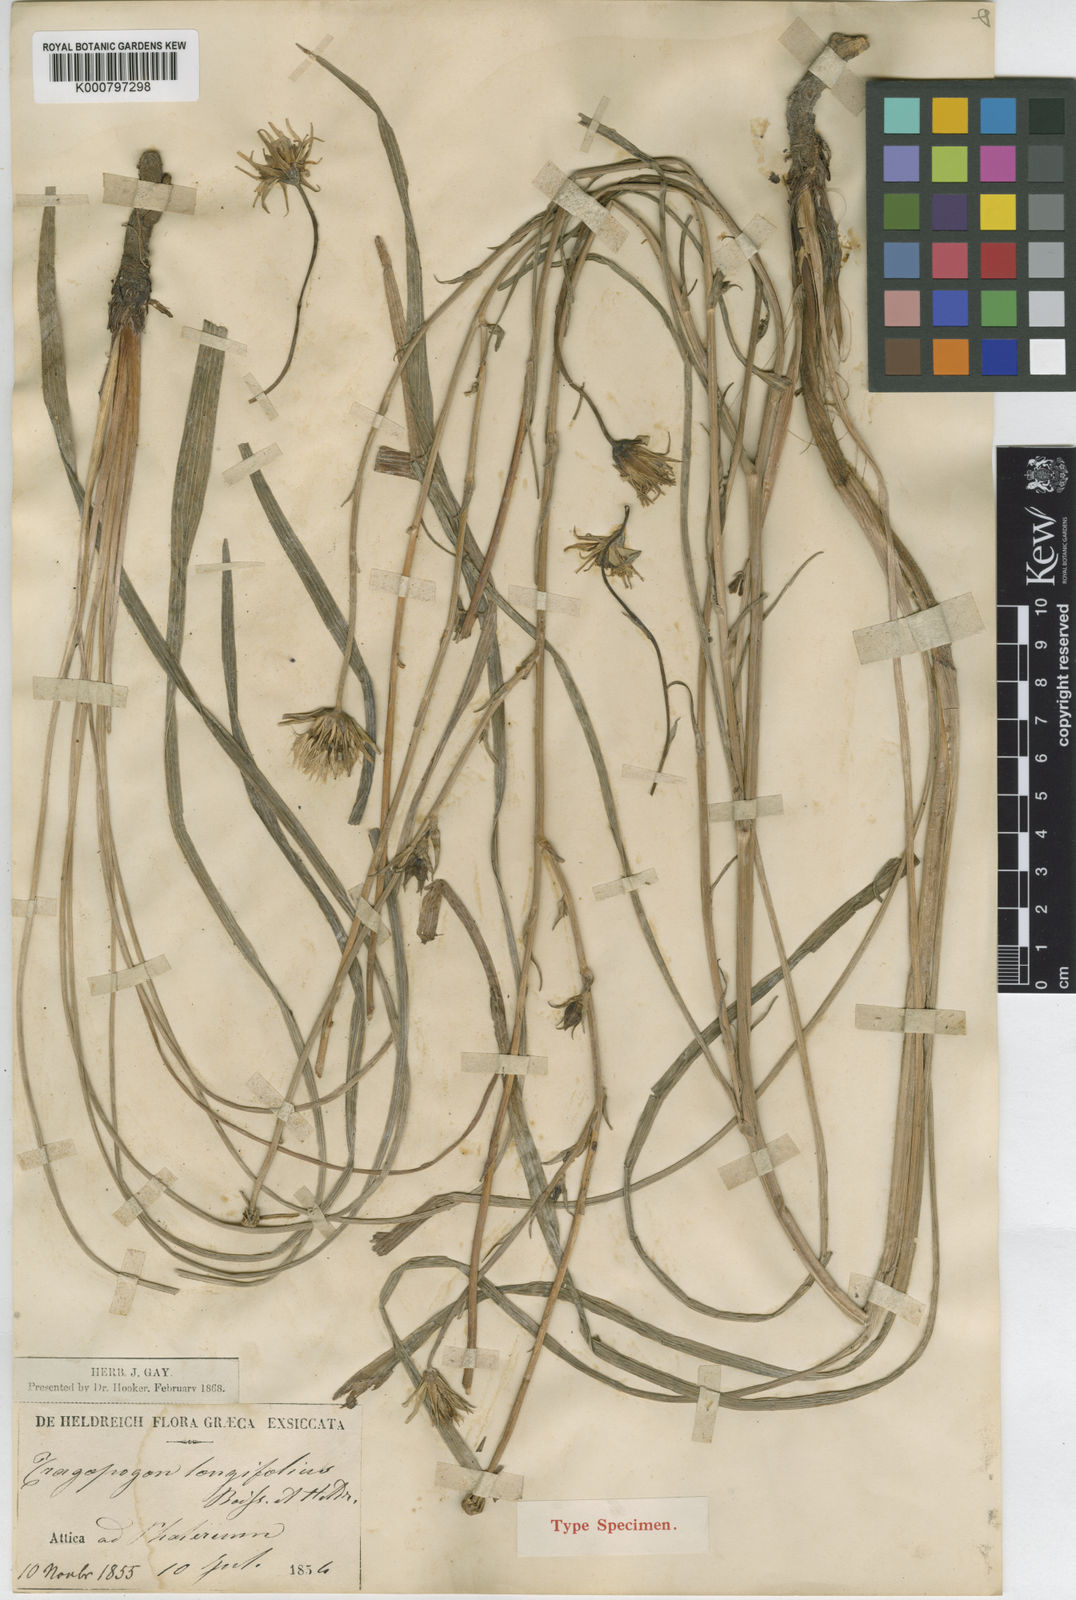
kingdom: Plantae
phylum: Tracheophyta
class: Magnoliopsida
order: Asterales
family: Asteraceae
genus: Tragopogon
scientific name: Tragopogon
